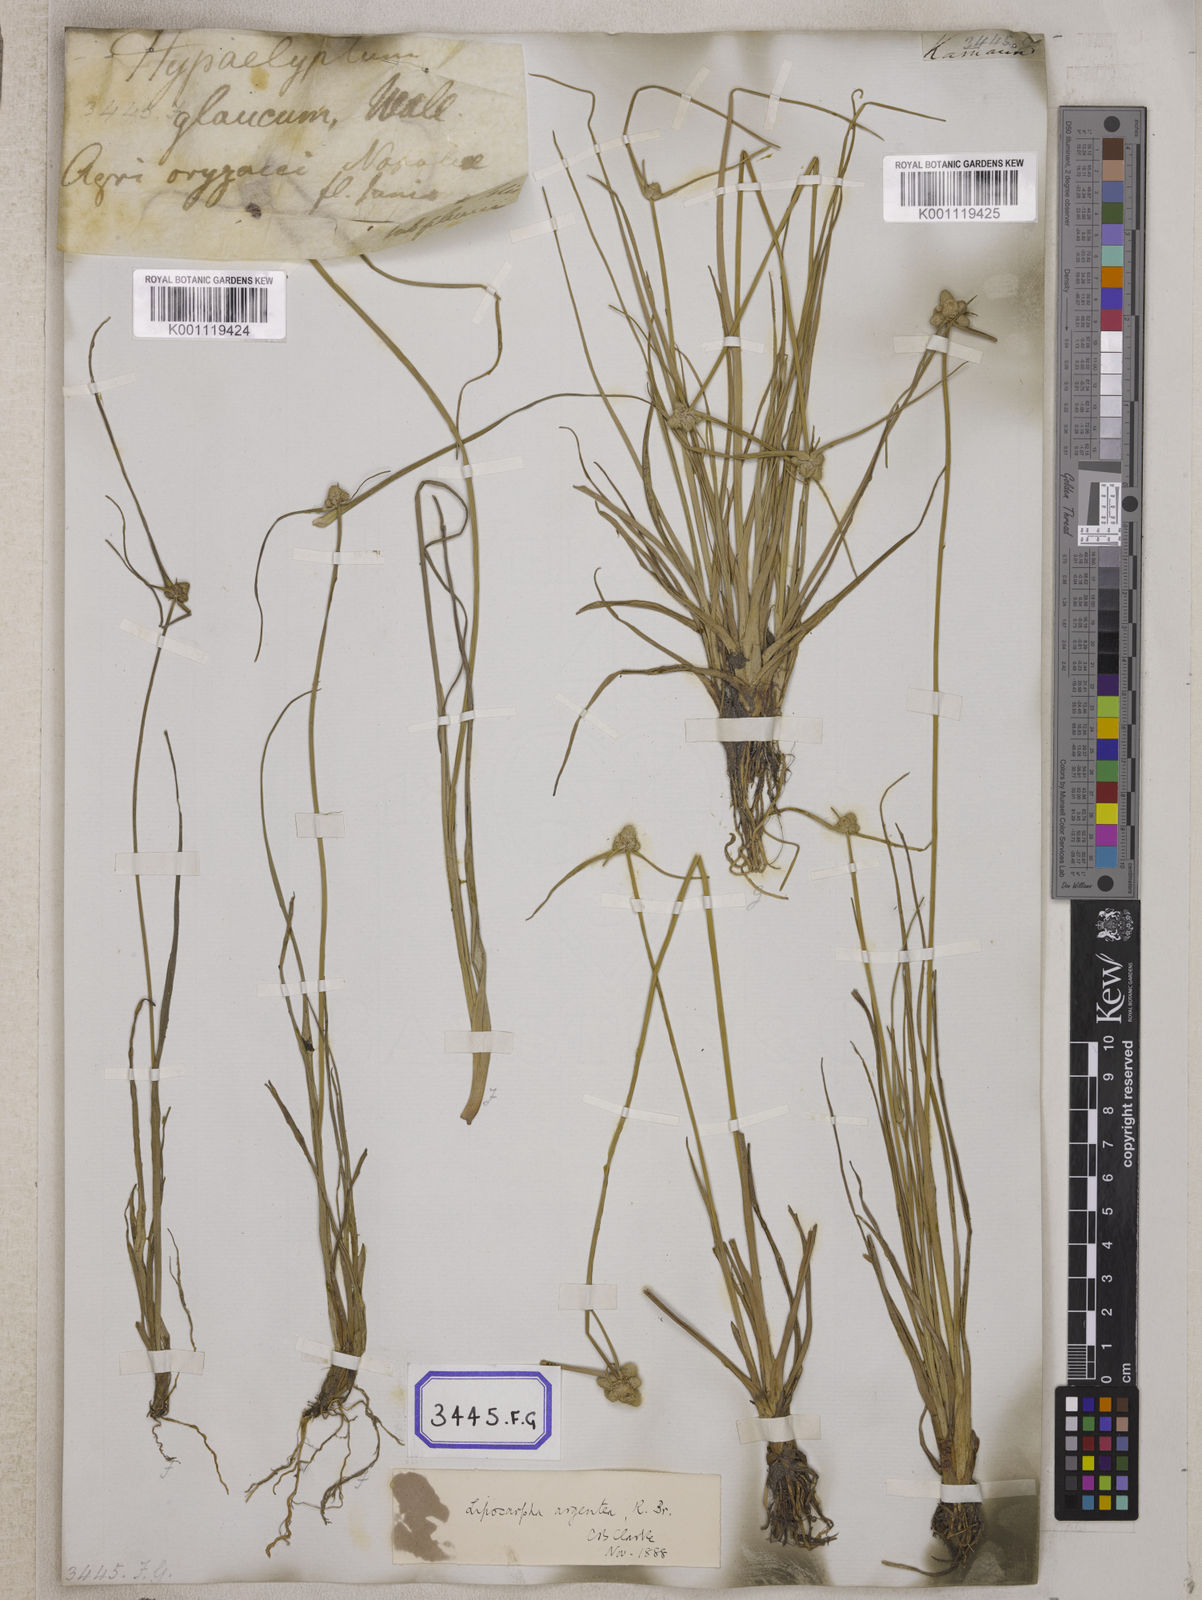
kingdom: Plantae
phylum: Tracheophyta
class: Liliopsida
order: Poales
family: Cyperaceae
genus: Cyperus
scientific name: Cyperus
